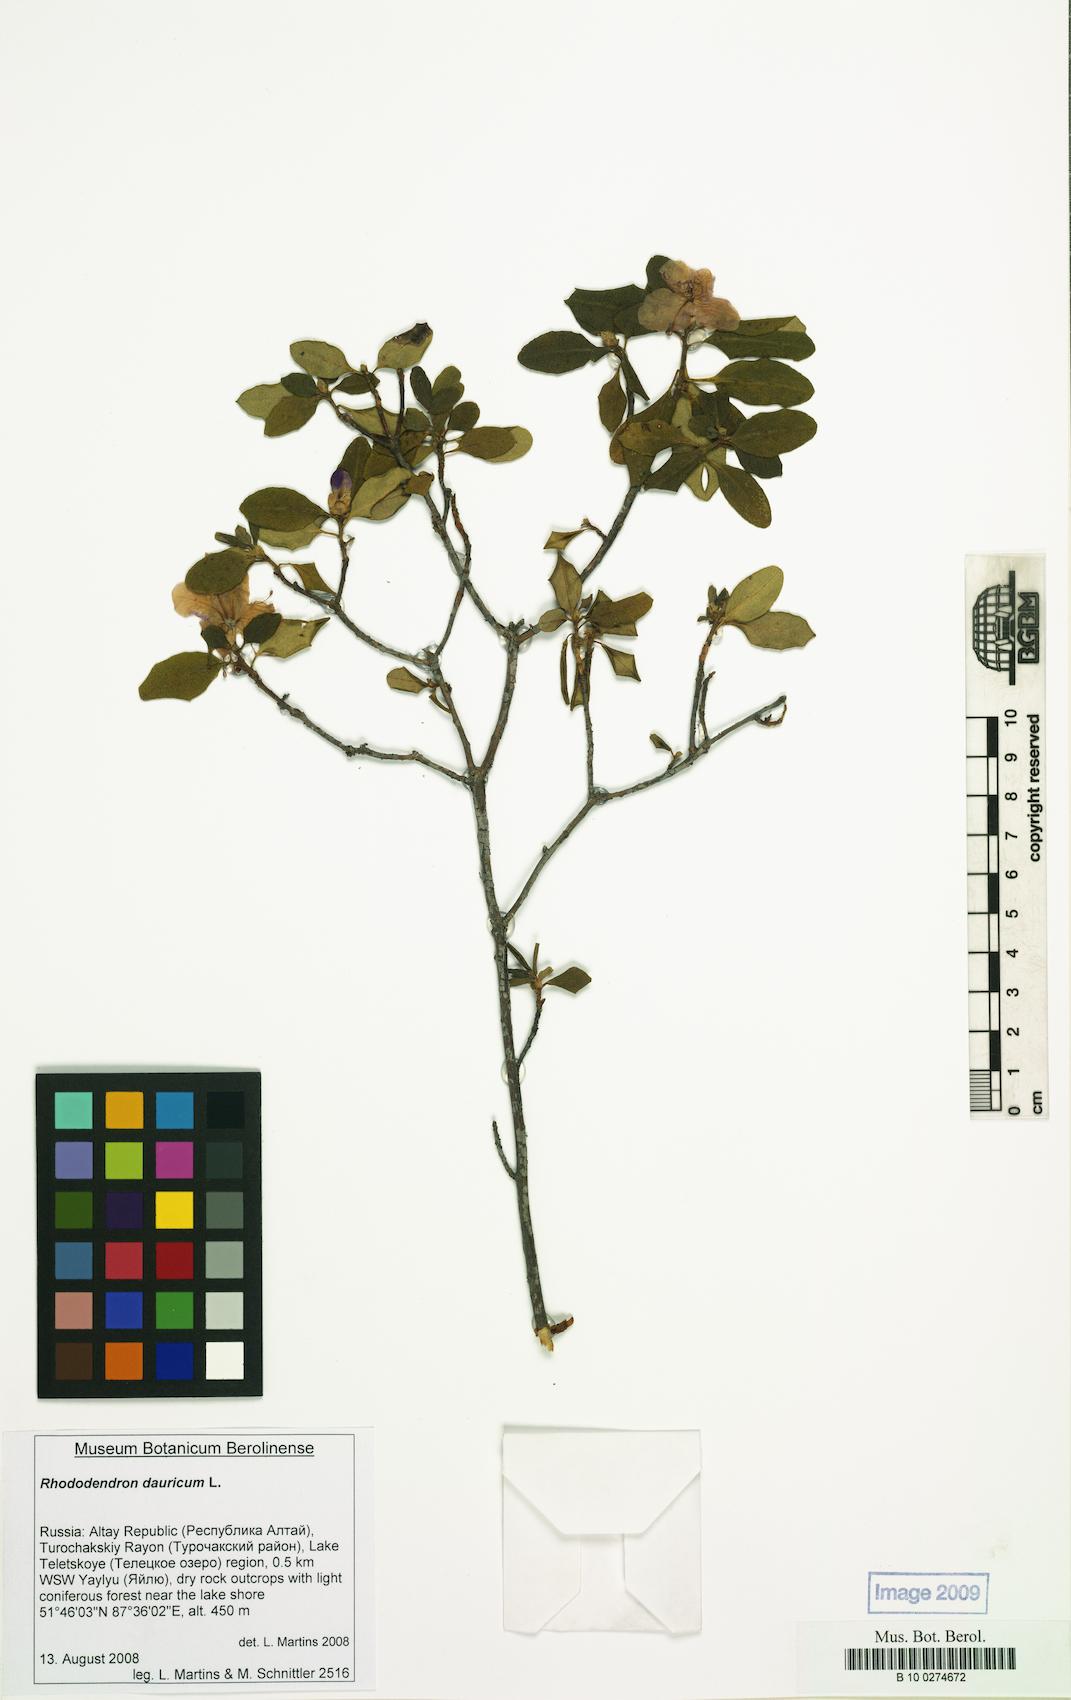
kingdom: Plantae
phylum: Tracheophyta
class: Magnoliopsida
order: Ericales
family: Ericaceae
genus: Rhododendron
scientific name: Rhododendron dauricum
